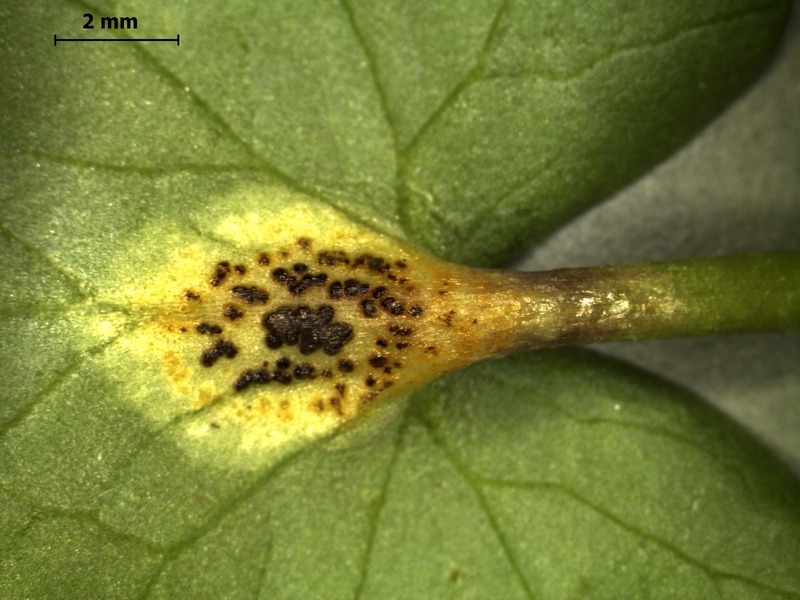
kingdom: Fungi
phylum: Basidiomycota
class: Pucciniomycetes
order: Pucciniales
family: Pucciniaceae
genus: Uromyces
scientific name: Uromyces ficariae
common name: Bitter chocolate rust
